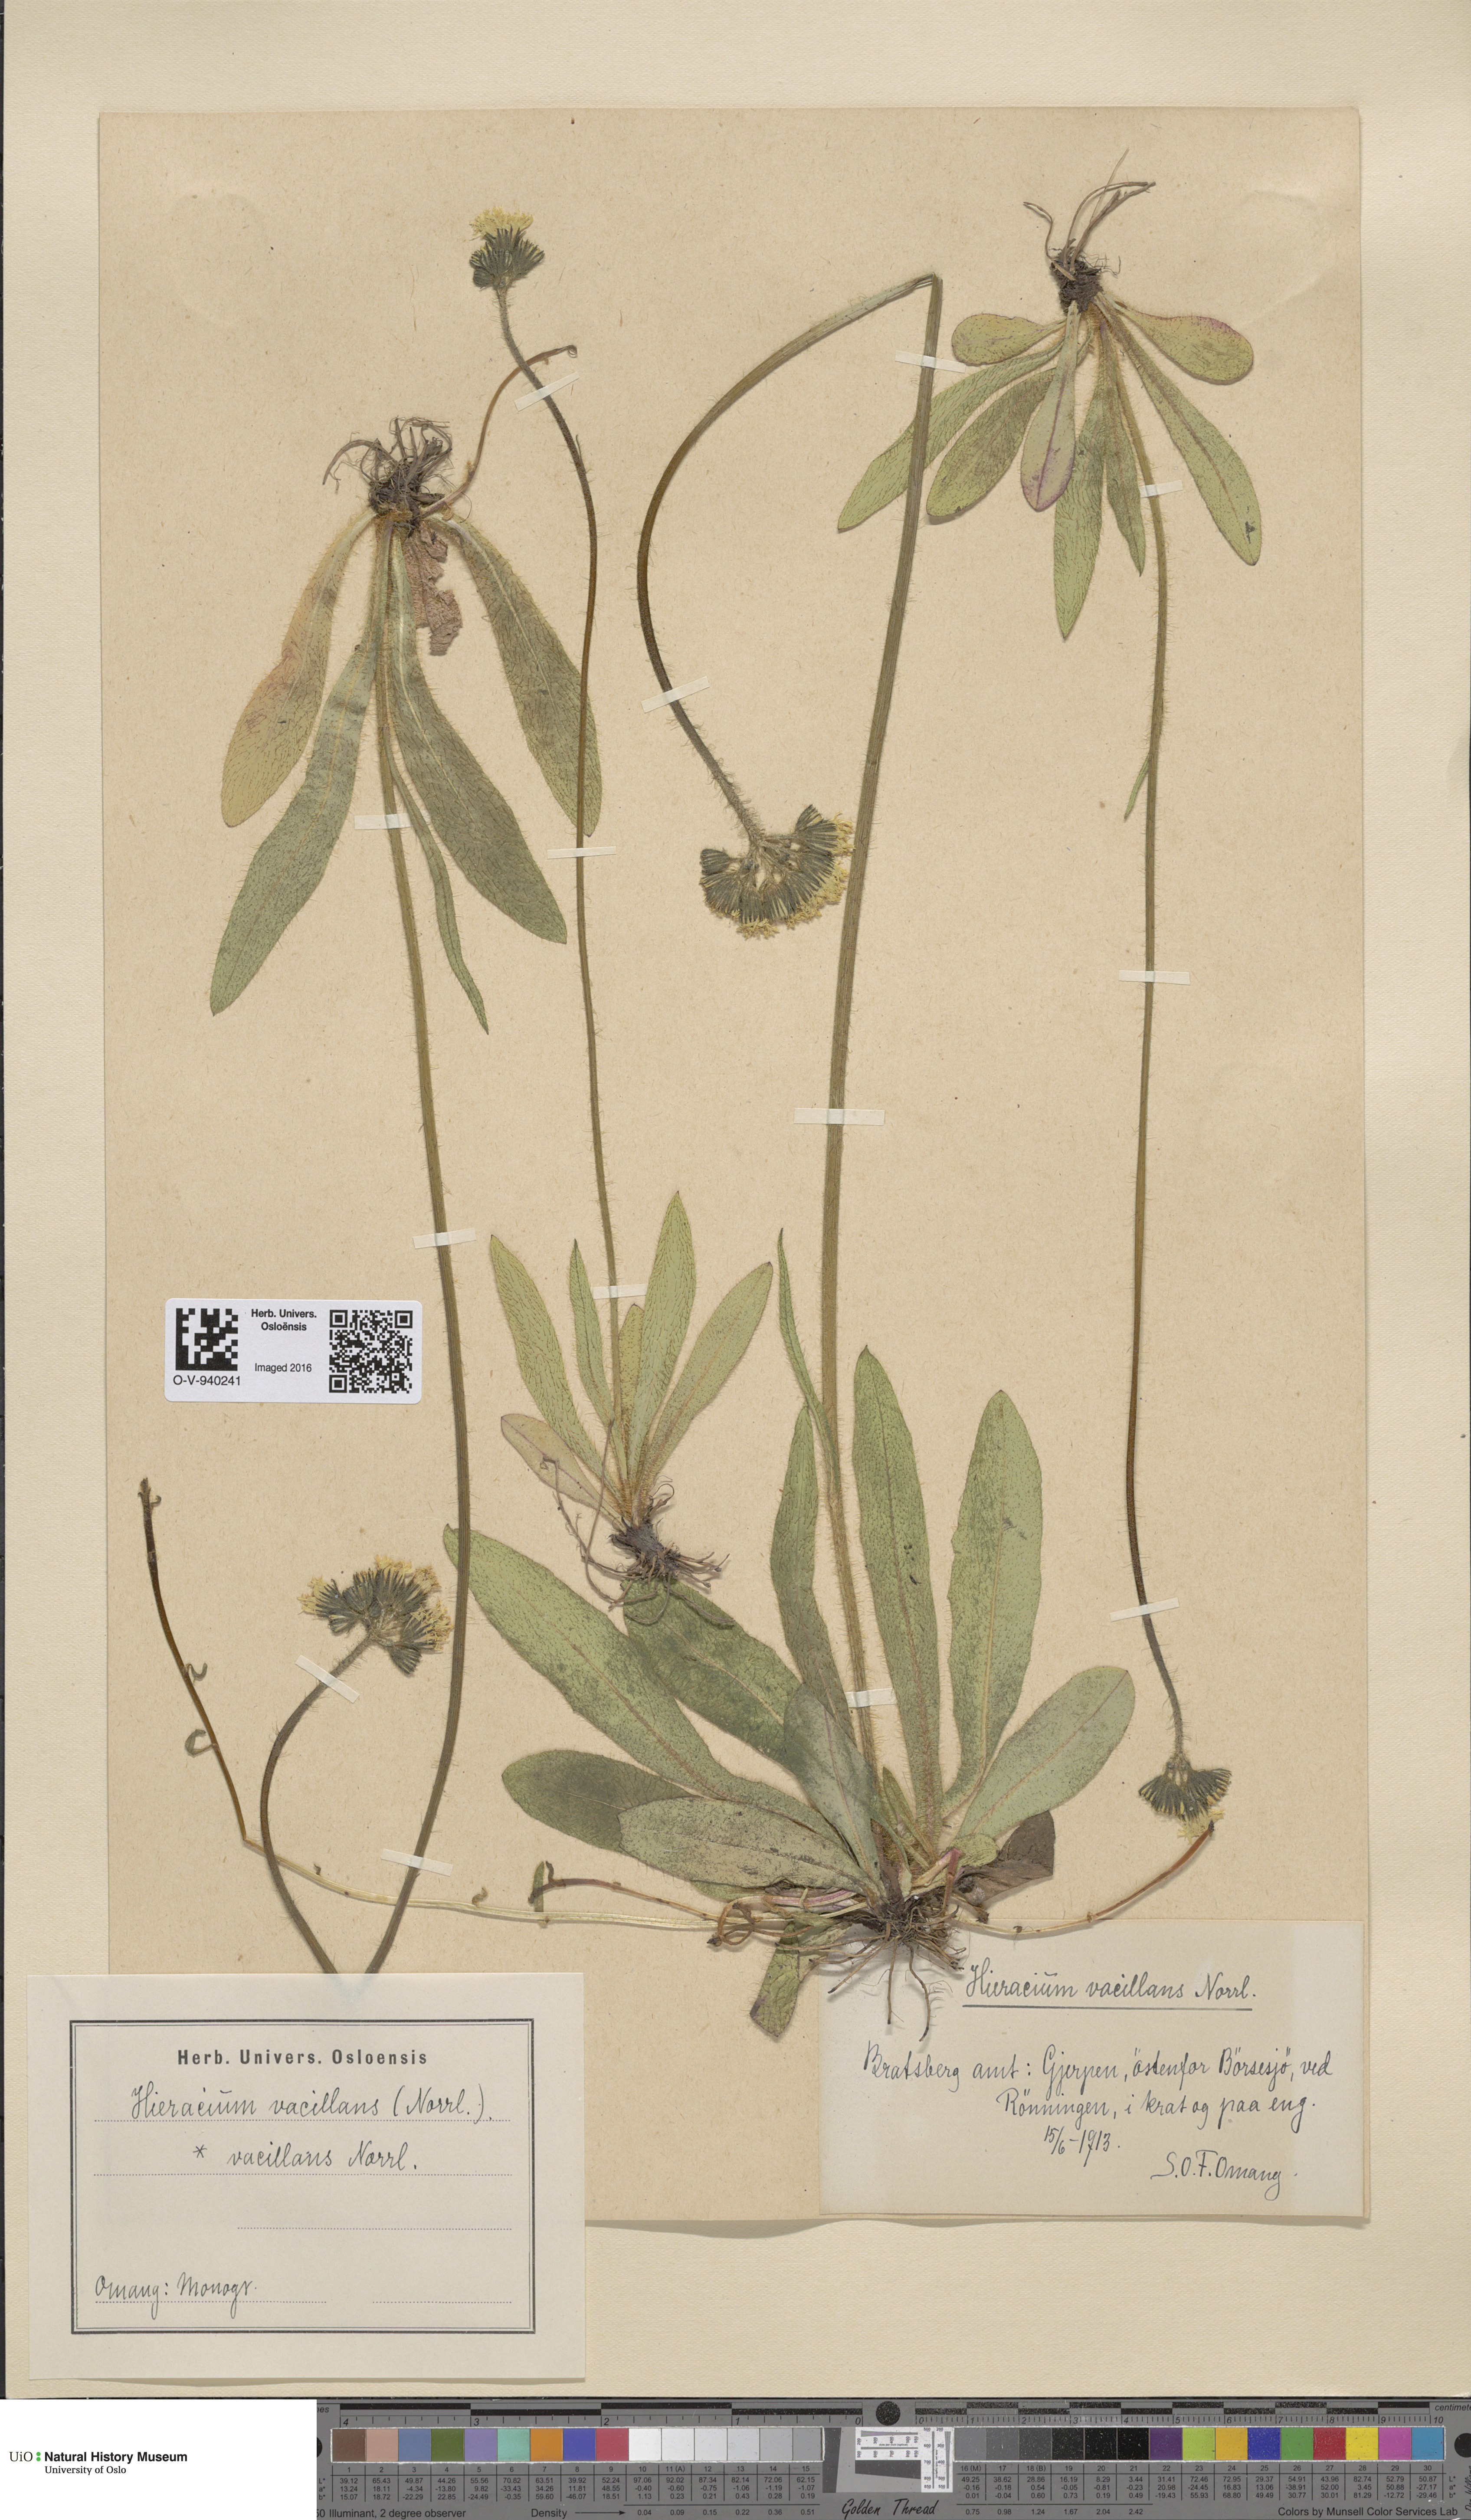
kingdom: Plantae
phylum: Tracheophyta
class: Magnoliopsida
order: Asterales
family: Asteraceae
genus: Pilosella
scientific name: Pilosella glomerata
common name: Queen devil hawkweed
